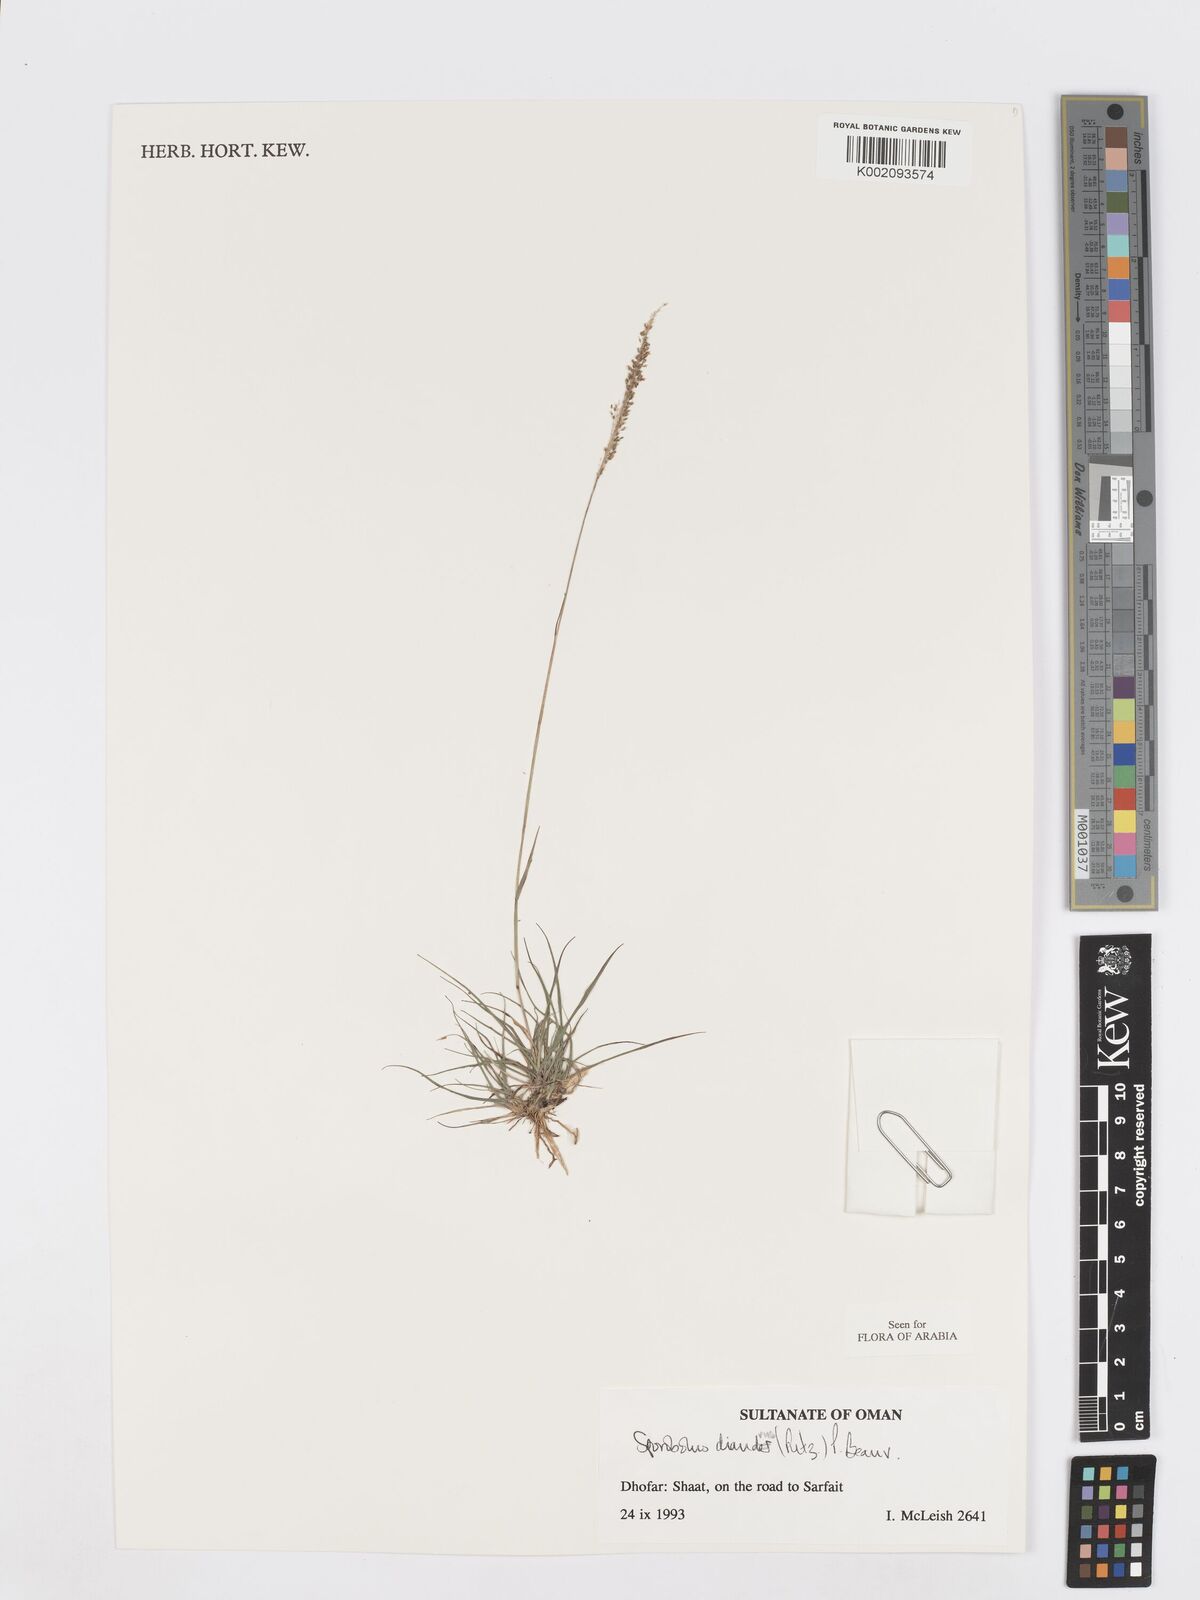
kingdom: Plantae
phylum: Tracheophyta
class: Liliopsida
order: Poales
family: Poaceae
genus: Sporobolus
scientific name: Sporobolus diandrus
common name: Tussock dropseed
